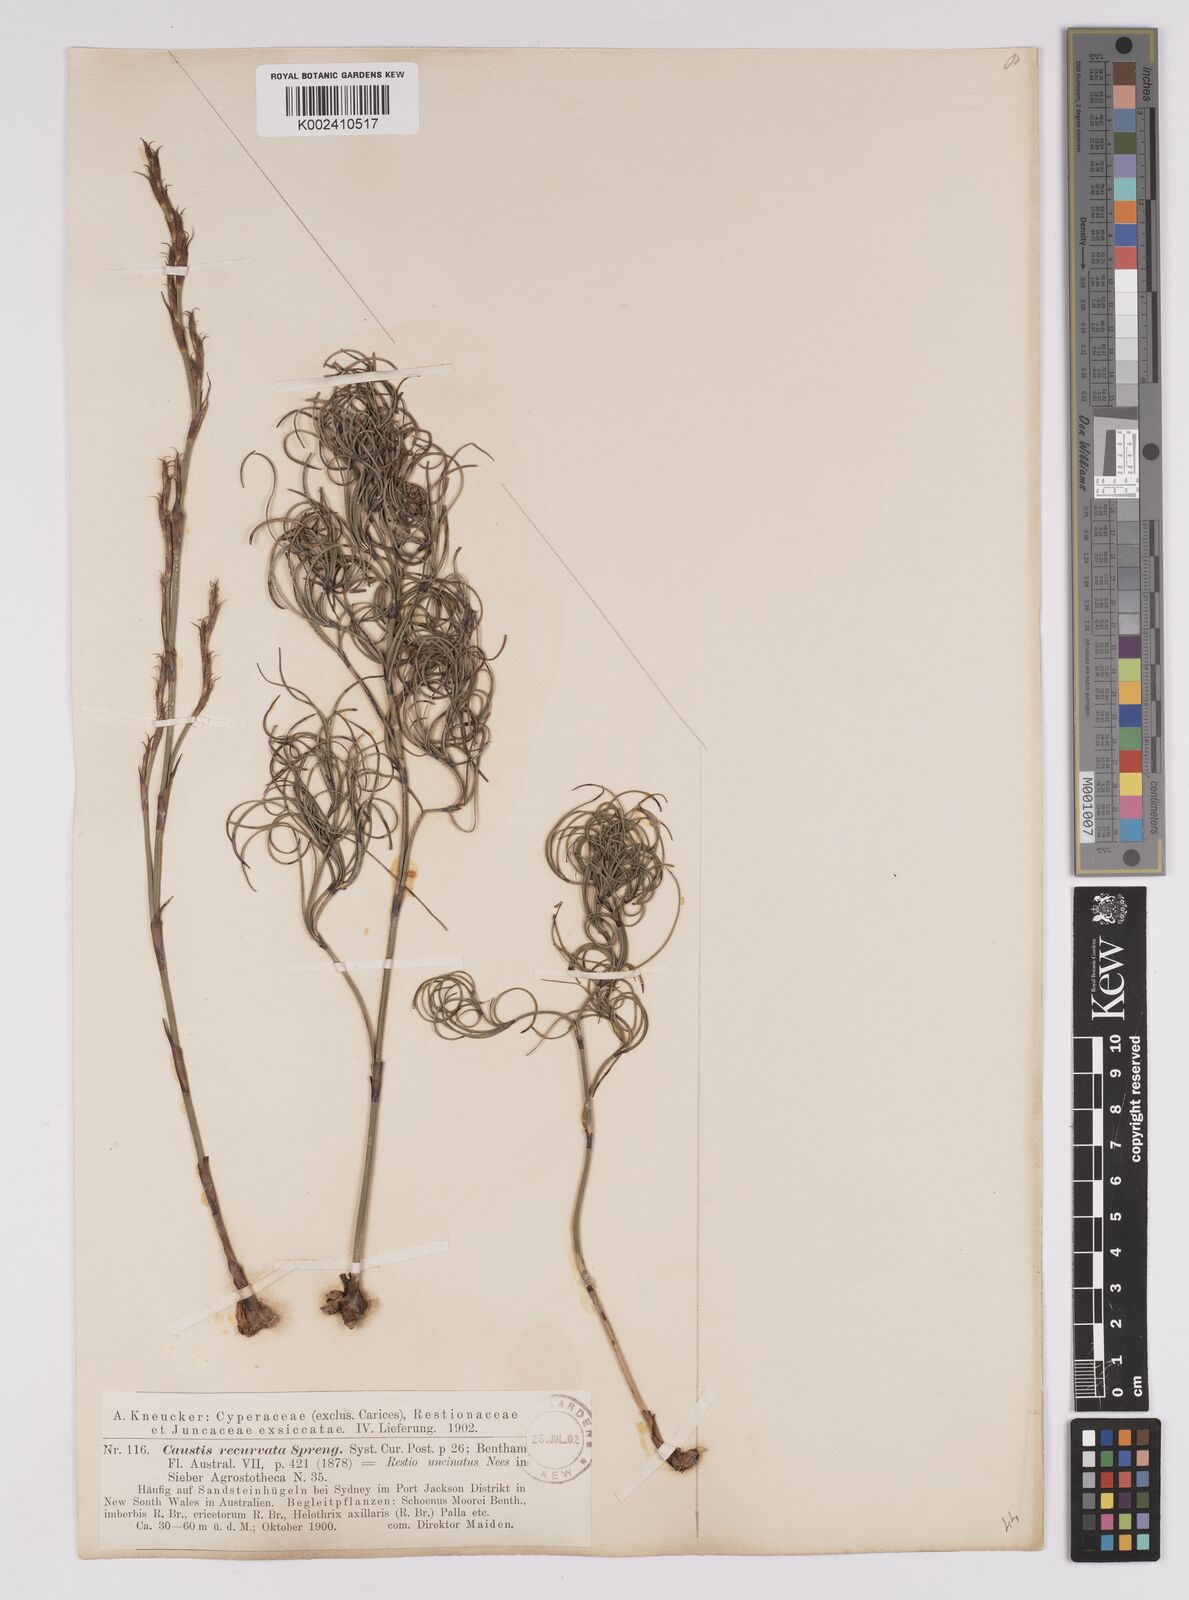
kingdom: Plantae
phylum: Tracheophyta
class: Liliopsida
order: Poales
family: Cyperaceae
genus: Caustis
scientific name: Caustis recurvata
